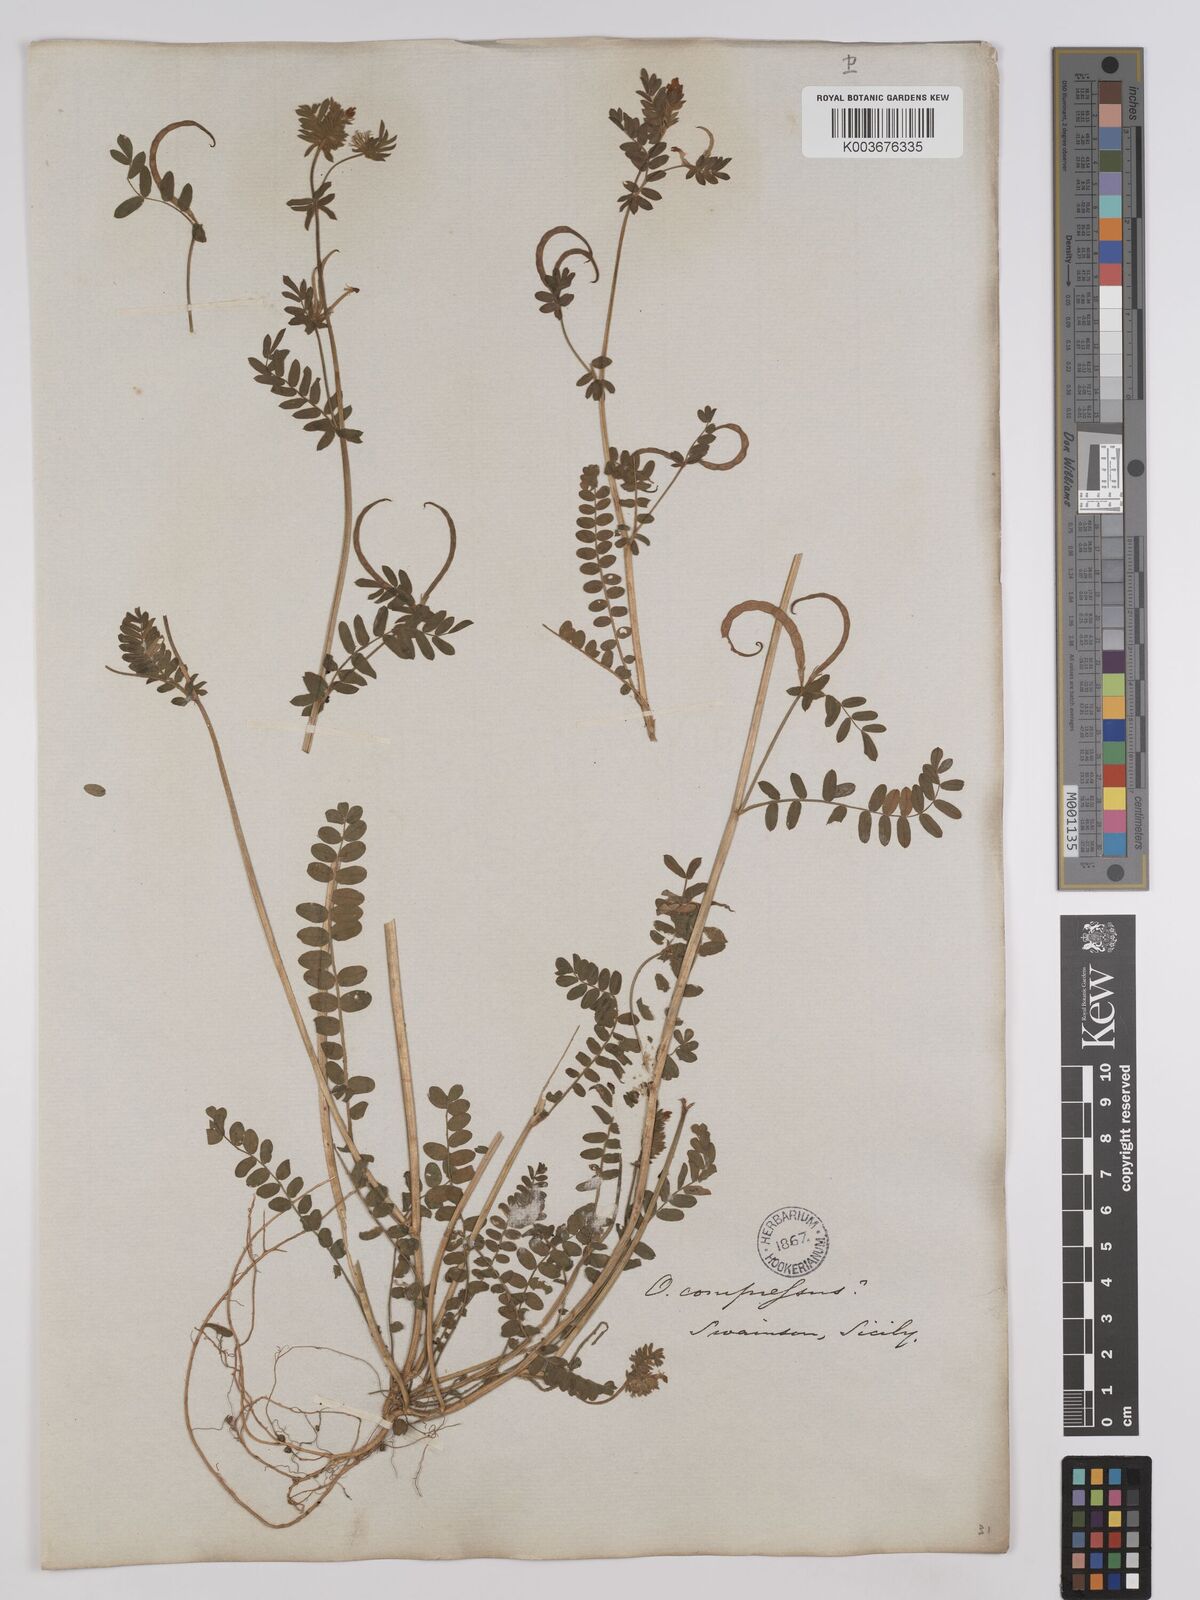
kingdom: Plantae
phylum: Tracheophyta
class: Magnoliopsida
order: Fabales
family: Fabaceae
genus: Ornithopus
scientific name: Ornithopus compressus
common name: Yellow serradella
